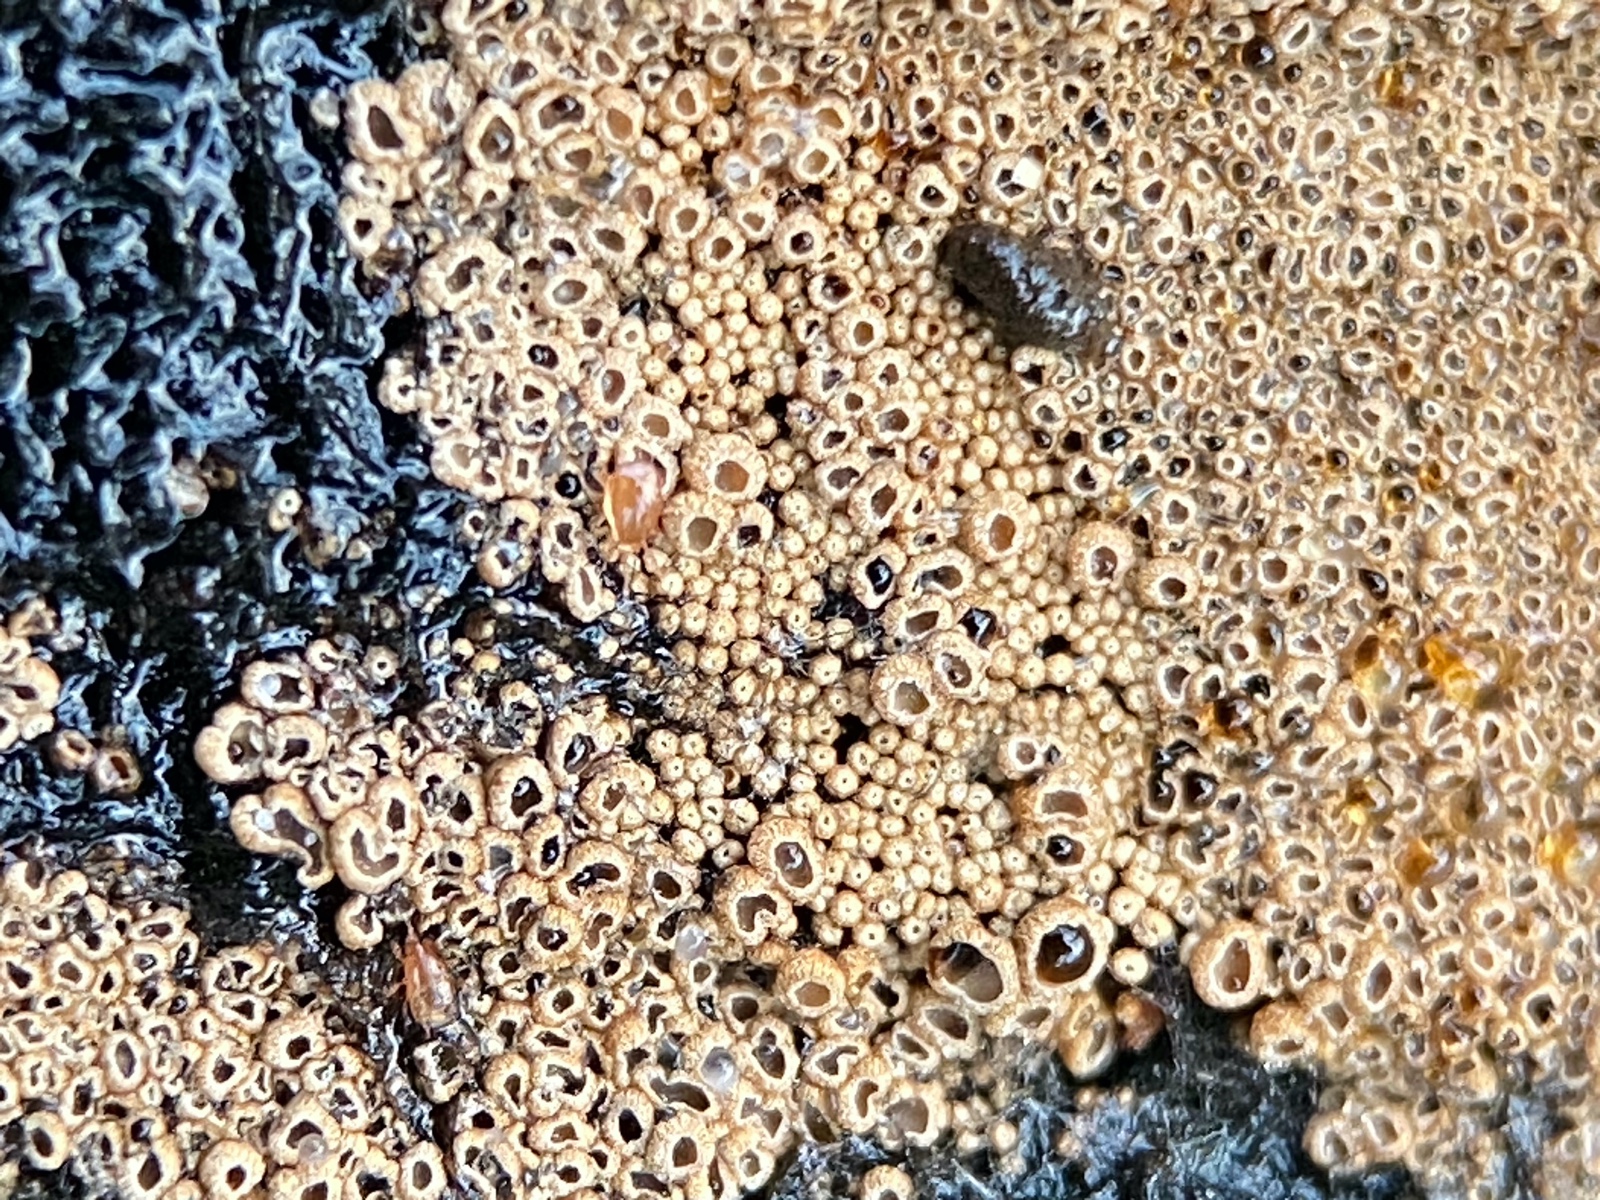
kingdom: Fungi
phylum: Basidiomycota
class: Agaricomycetes
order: Agaricales
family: Niaceae
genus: Merismodes
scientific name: Merismodes anomala
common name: almindelig læderskål
